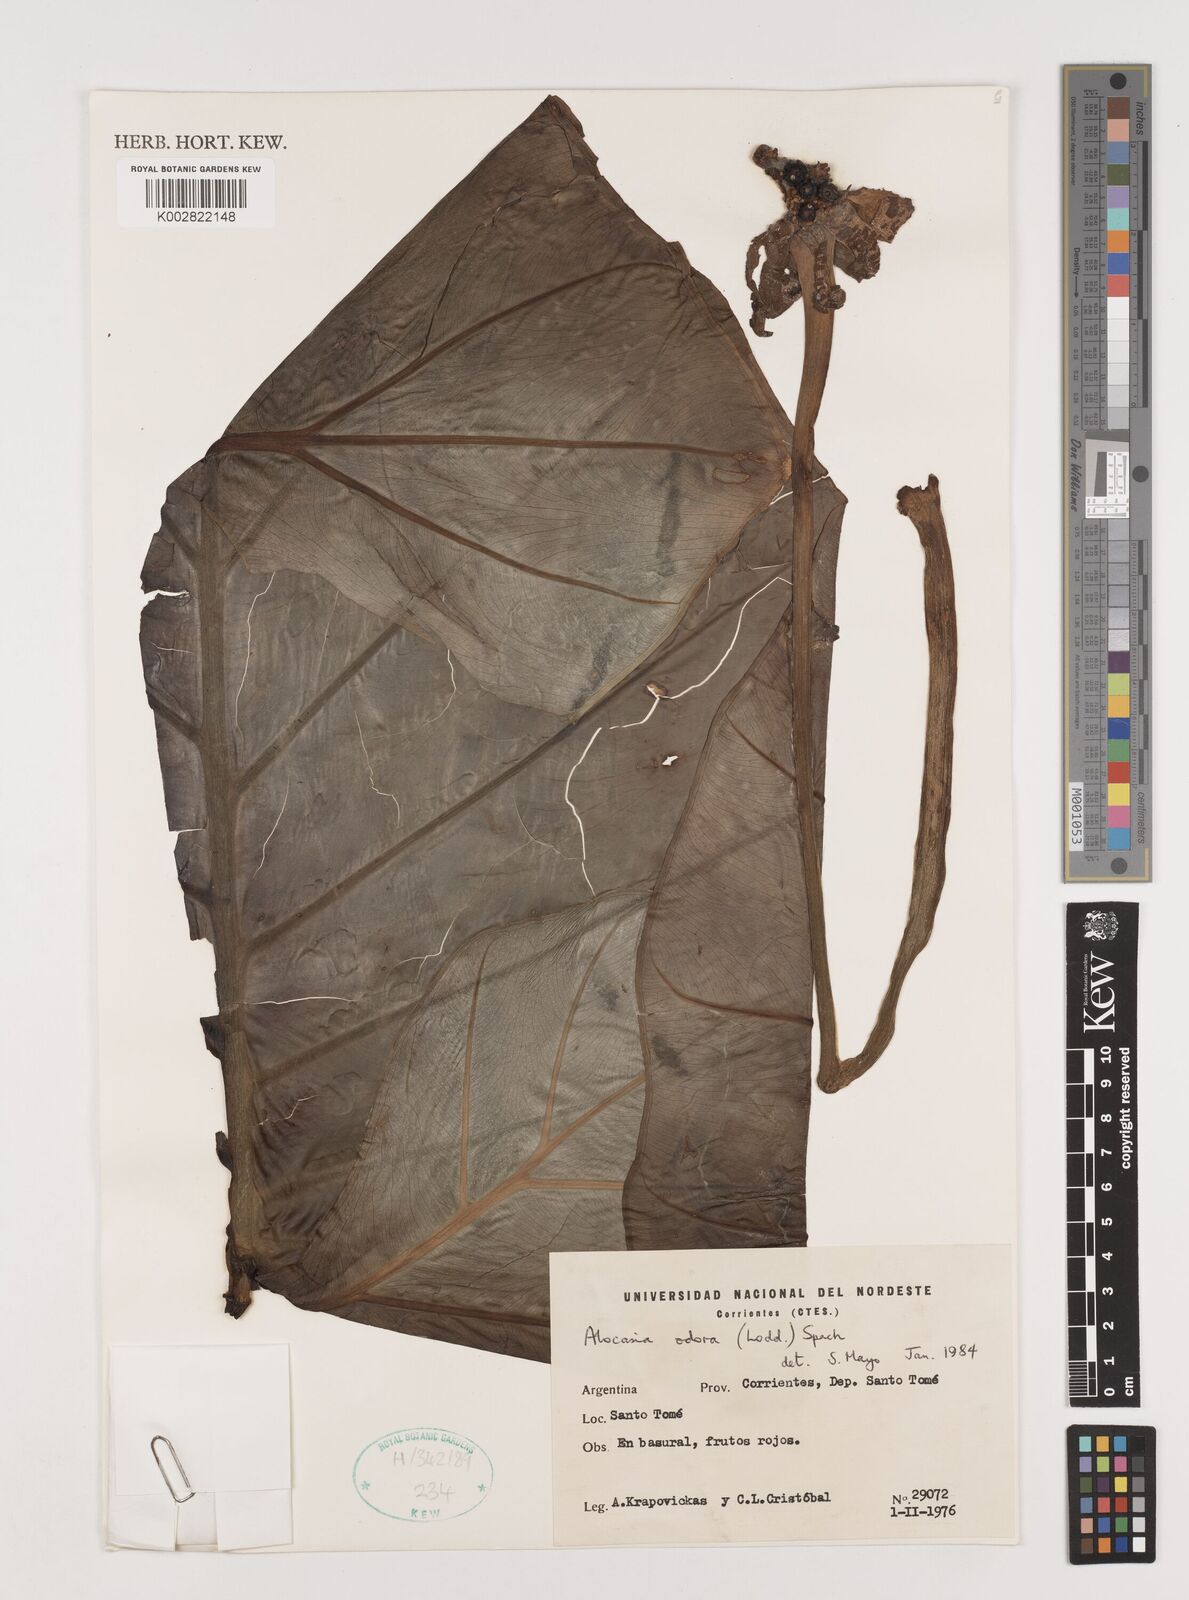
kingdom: Plantae
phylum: Tracheophyta
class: Liliopsida
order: Alismatales
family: Araceae
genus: Arisaema
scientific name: Arisaema
